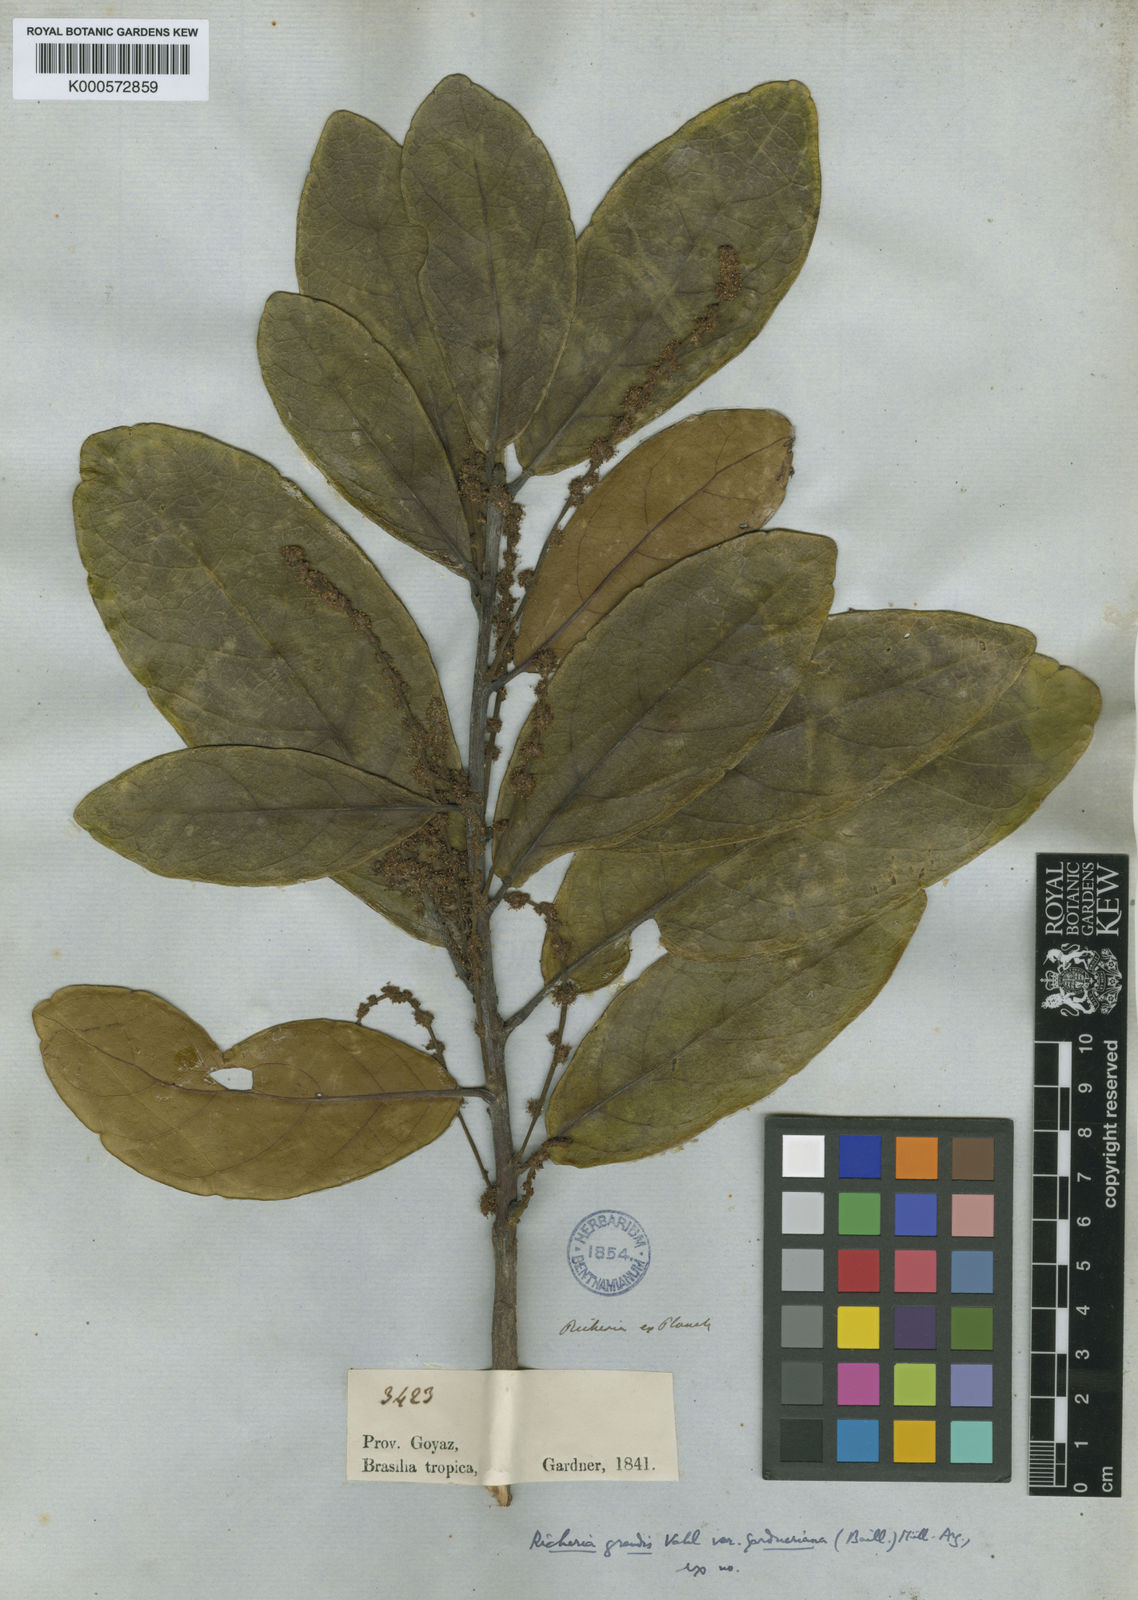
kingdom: Plantae
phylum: Tracheophyta
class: Magnoliopsida
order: Malpighiales
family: Phyllanthaceae
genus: Richeria
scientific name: Richeria grandis
